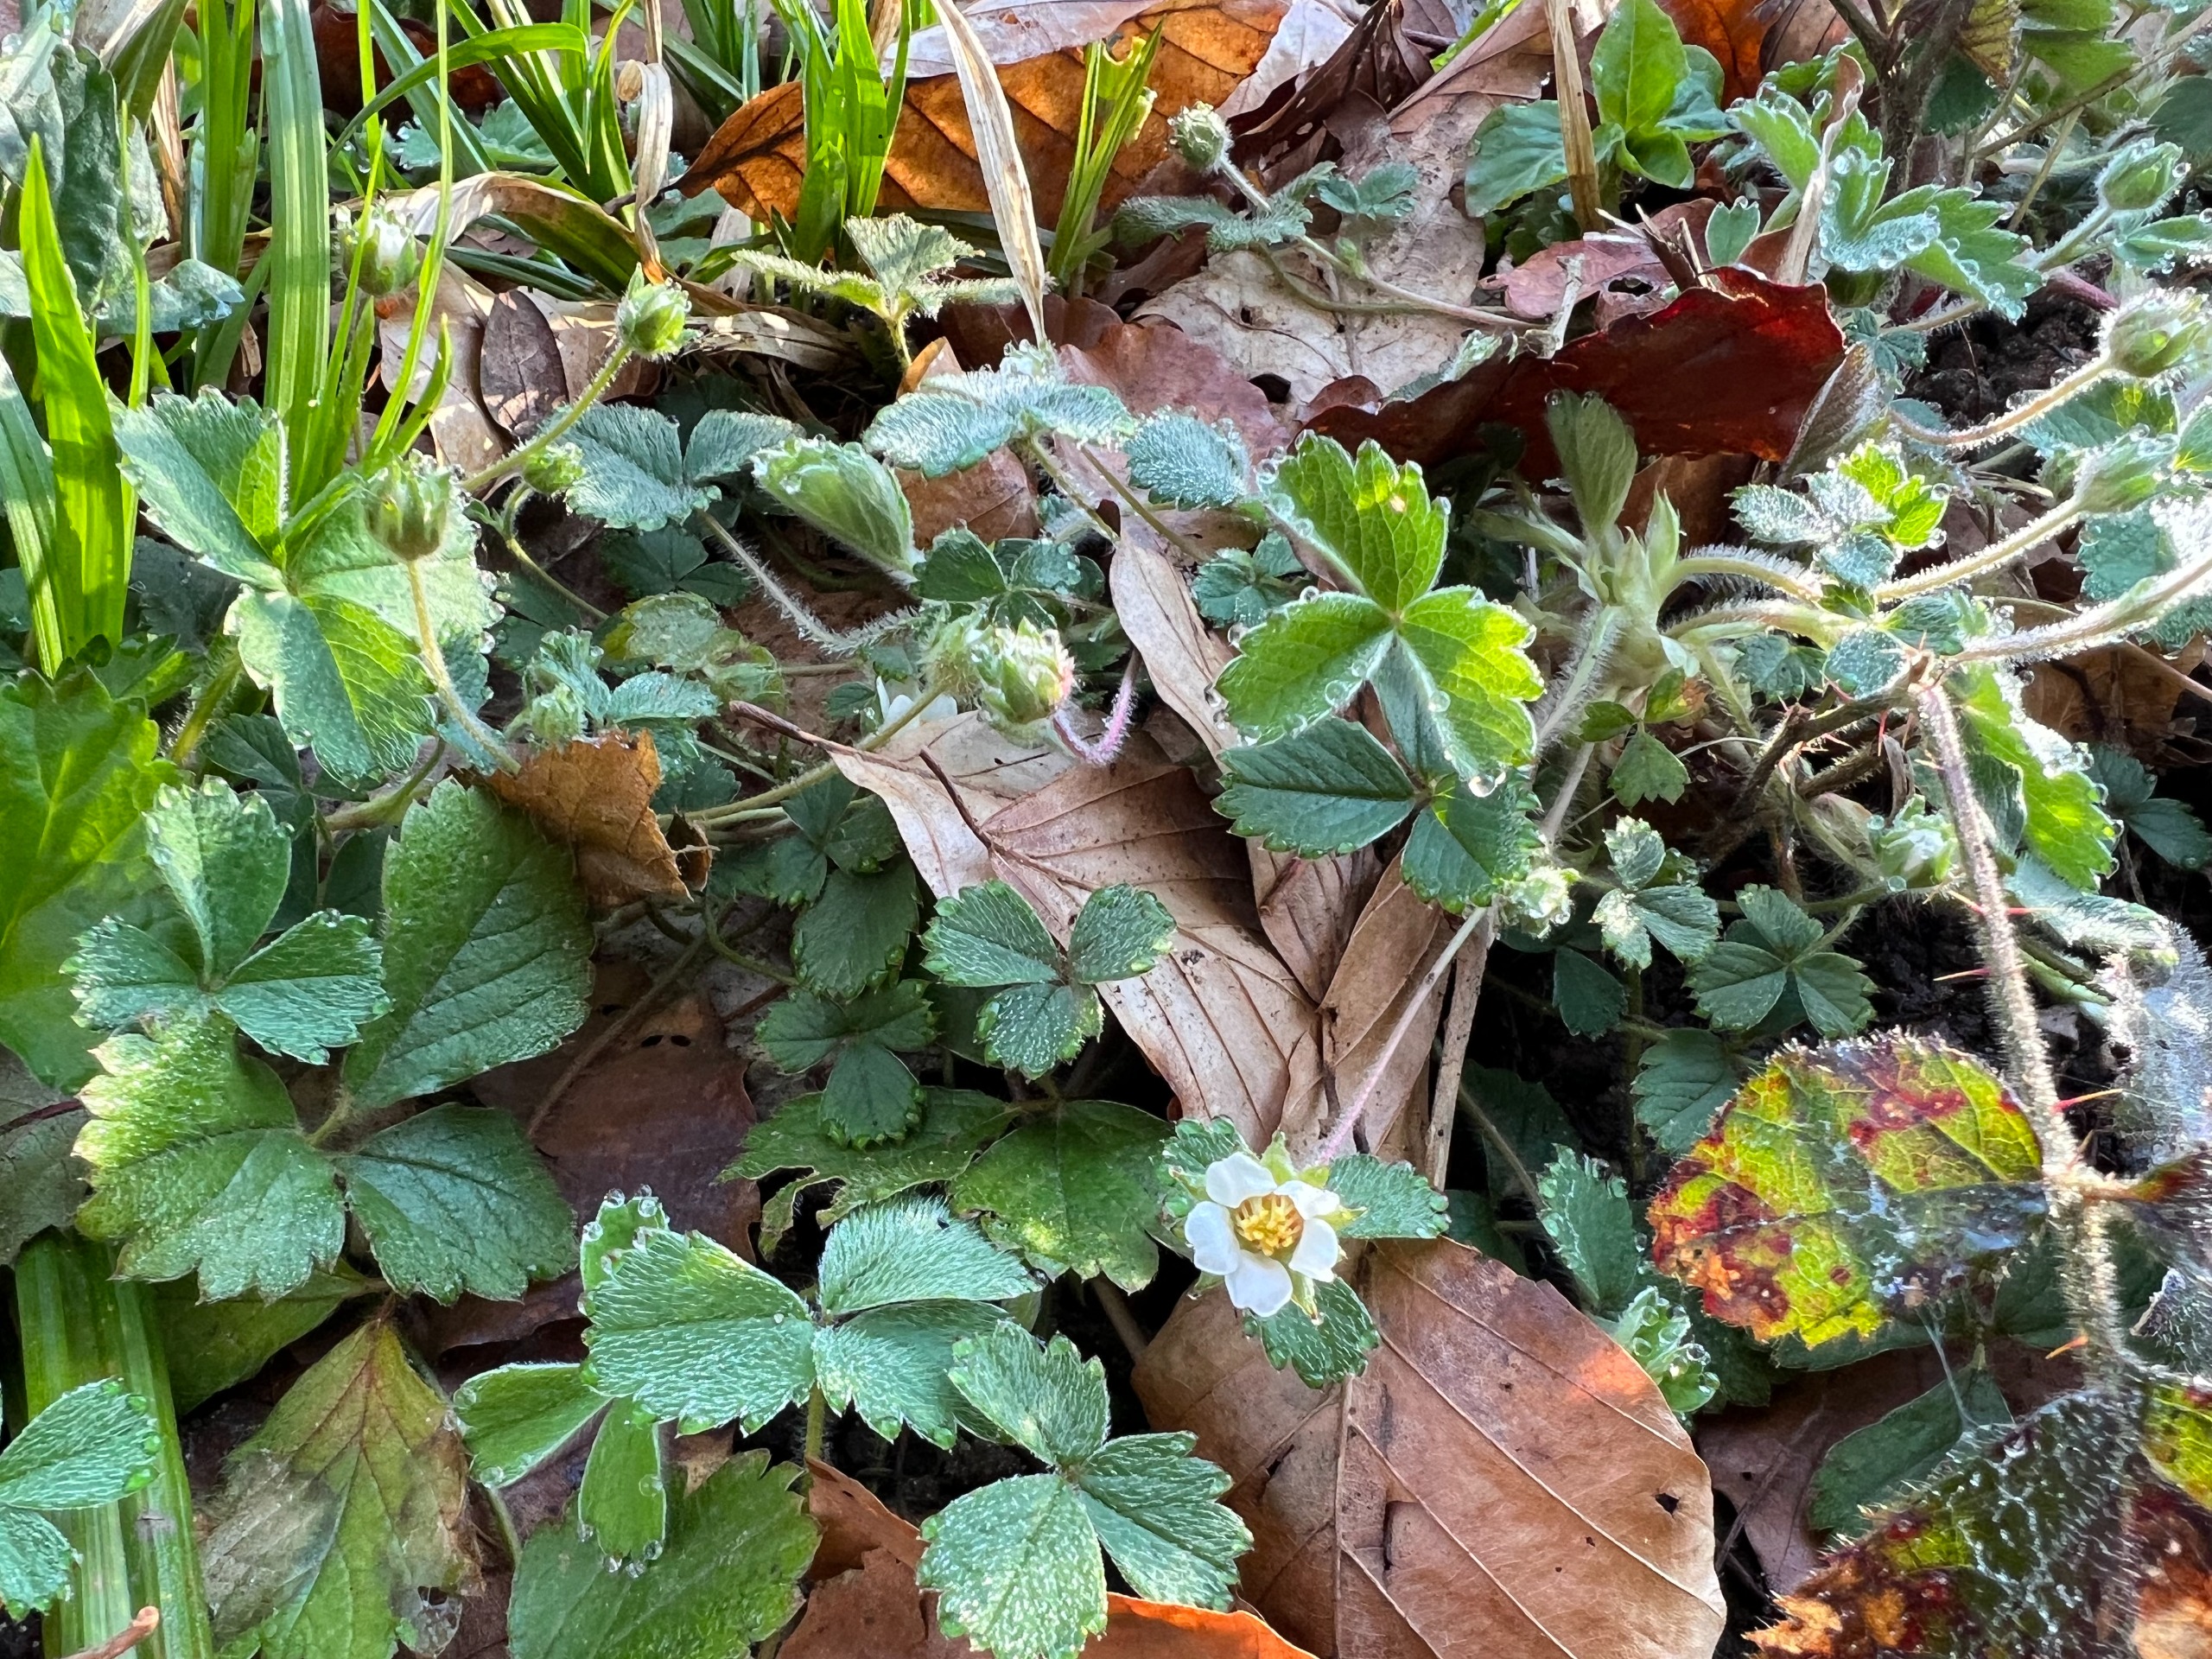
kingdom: Plantae
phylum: Tracheophyta
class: Magnoliopsida
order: Rosales
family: Rosaceae
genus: Potentilla
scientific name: Potentilla sterilis
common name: Jordbær-potentil
